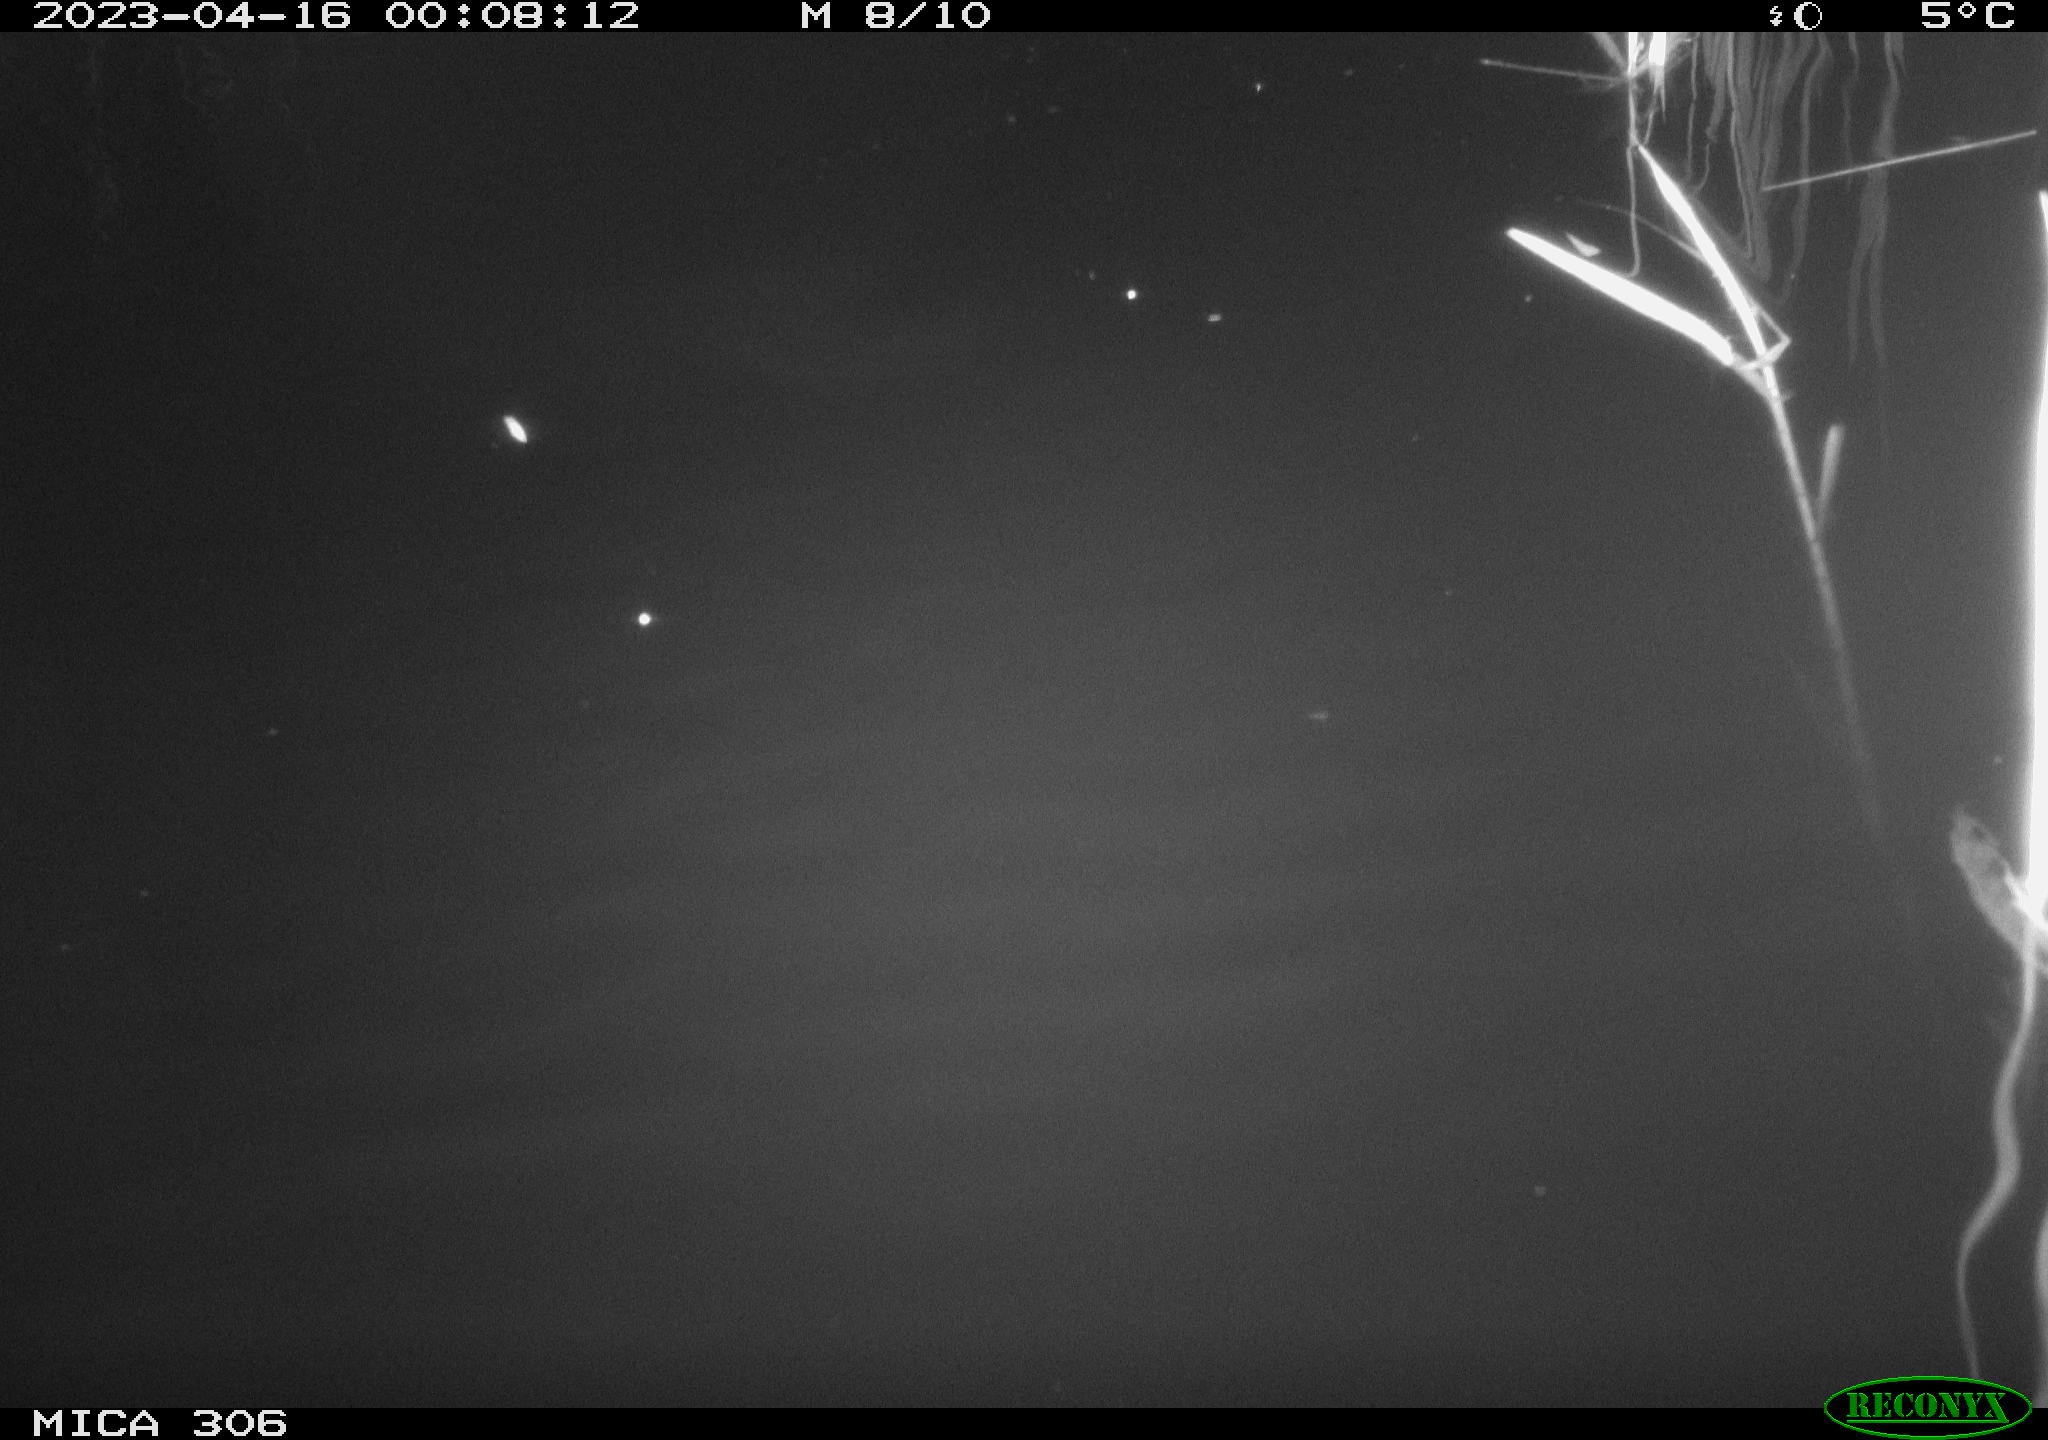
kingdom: Animalia
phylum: Chordata
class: Aves
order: Anseriformes
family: Anatidae
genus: Anas
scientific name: Anas
